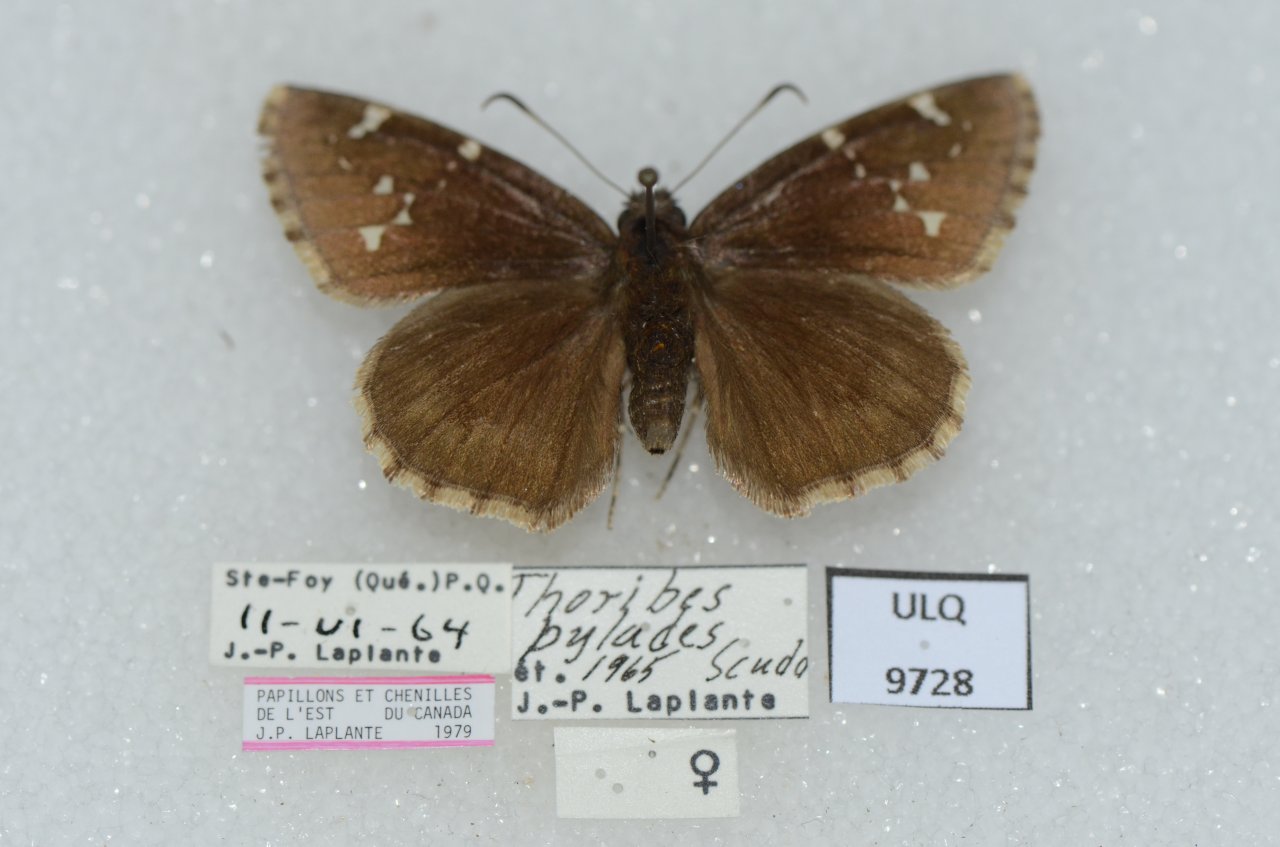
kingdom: Animalia
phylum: Arthropoda
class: Insecta
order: Lepidoptera
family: Hesperiidae
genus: Autochton
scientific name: Autochton
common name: Northern Cloudywing
